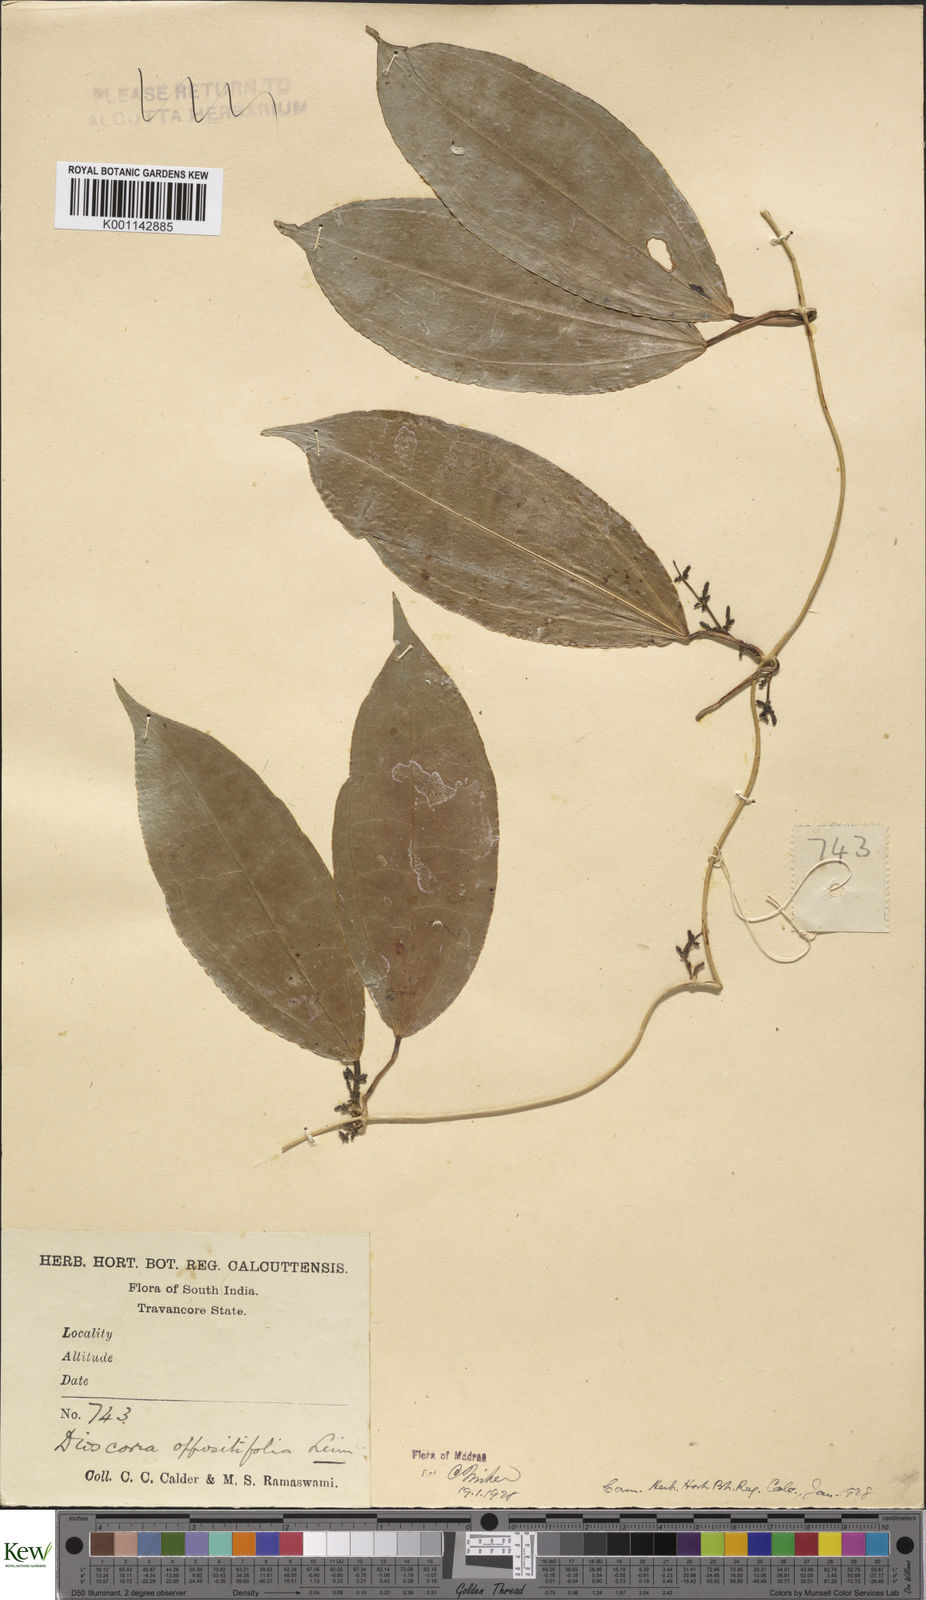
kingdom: Plantae
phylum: Tracheophyta
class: Liliopsida
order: Dioscoreales
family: Dioscoreaceae
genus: Dioscorea
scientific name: Dioscorea oppositifolia
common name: Chinese yam
